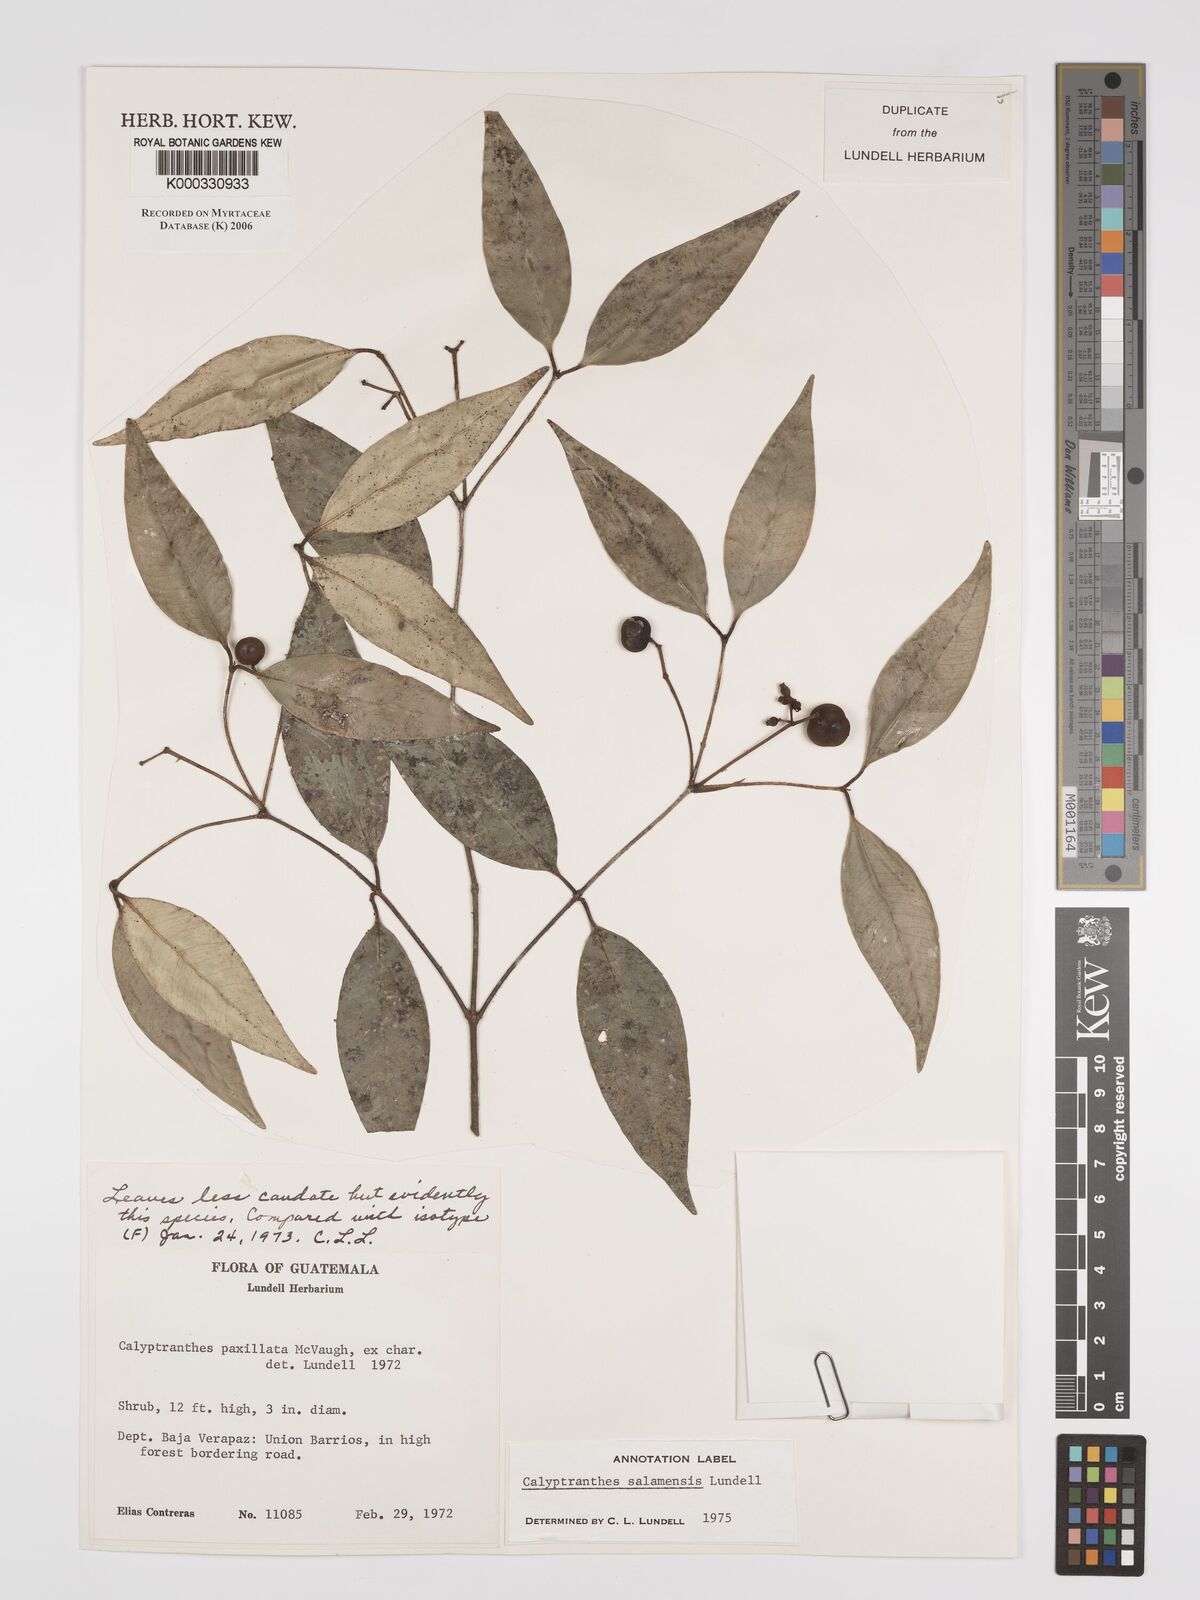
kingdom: Plantae
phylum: Tracheophyta
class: Magnoliopsida
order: Myrtales
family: Myrtaceae
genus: Myrcia
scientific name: Myrcia salamensis
